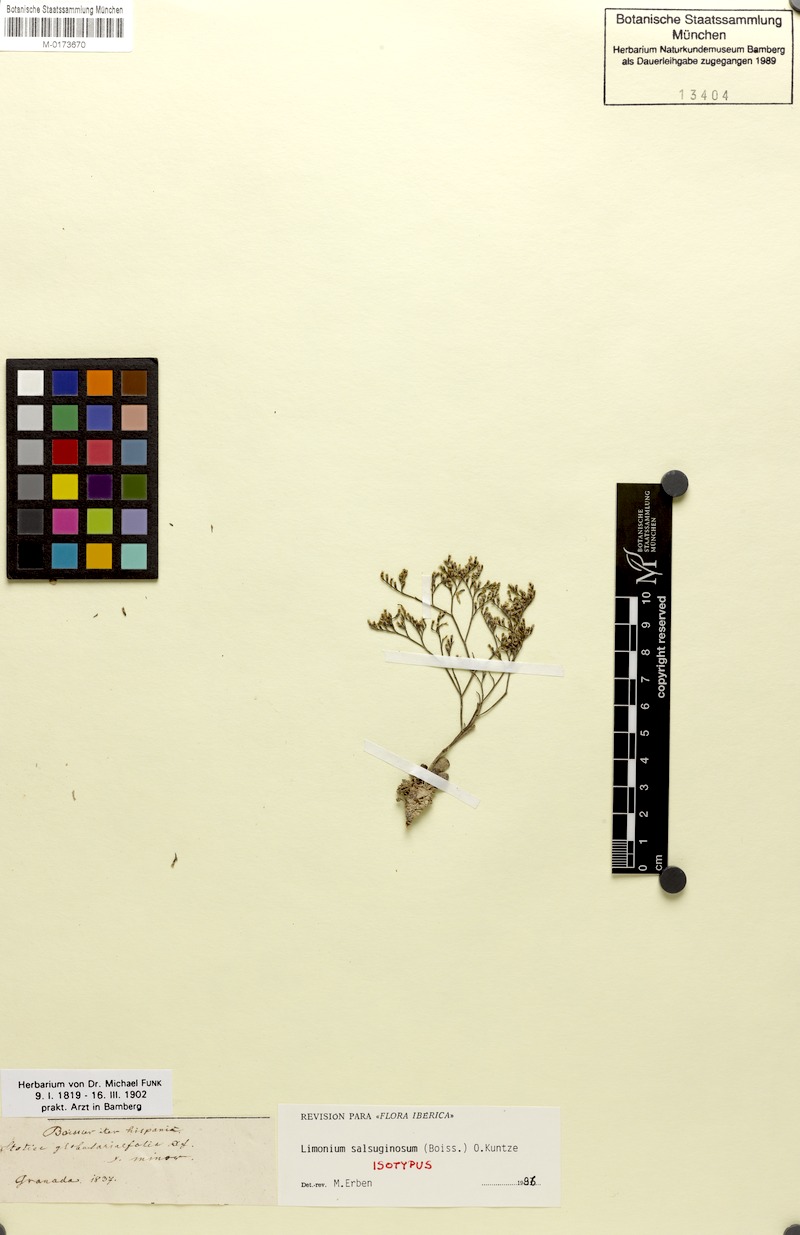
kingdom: Plantae
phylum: Tracheophyta
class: Magnoliopsida
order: Caryophyllales
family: Plumbaginaceae
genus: Limonium
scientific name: Limonium supinum
